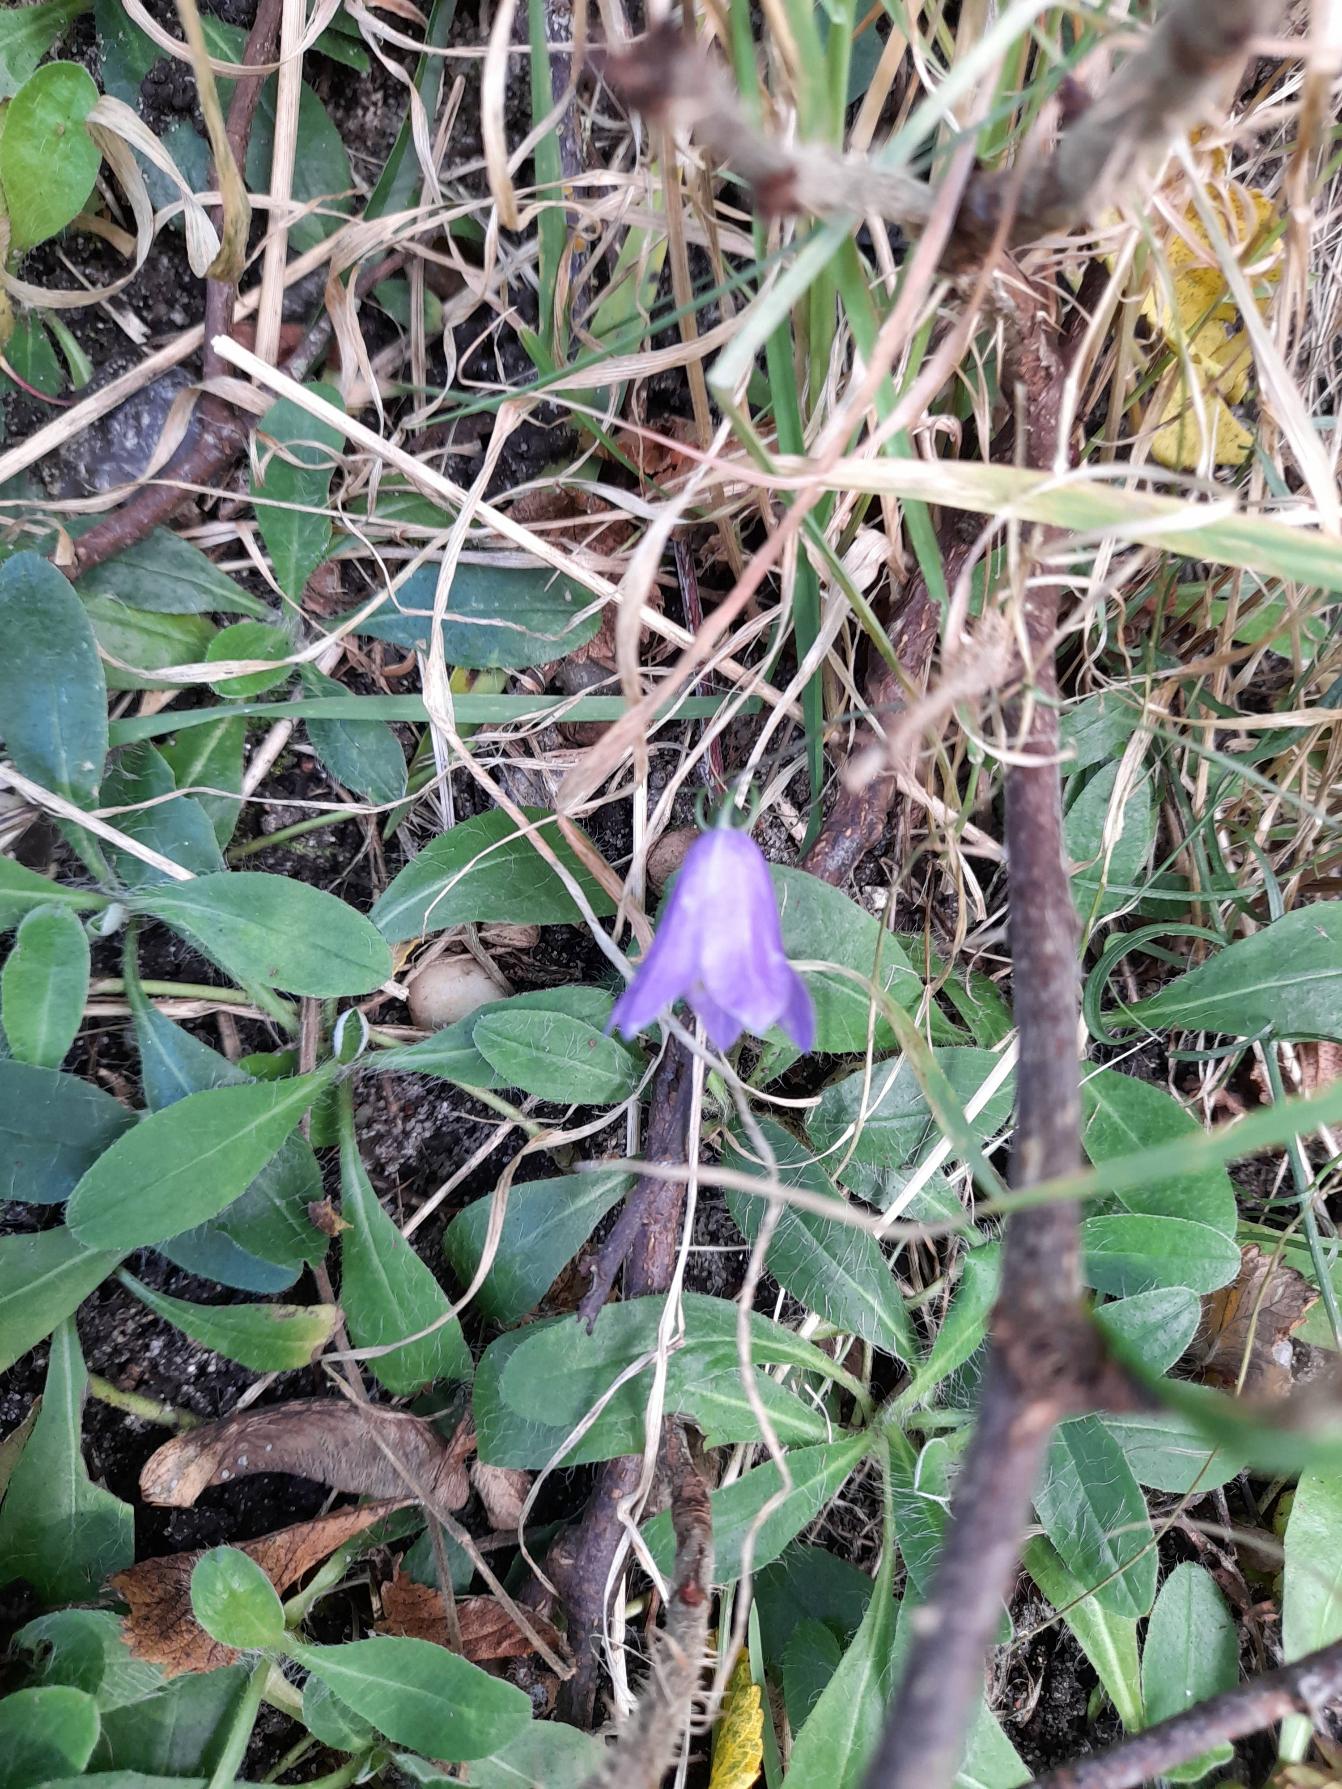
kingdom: Plantae
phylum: Tracheophyta
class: Magnoliopsida
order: Asterales
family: Campanulaceae
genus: Campanula
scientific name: Campanula rotundifolia
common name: Liden klokke
